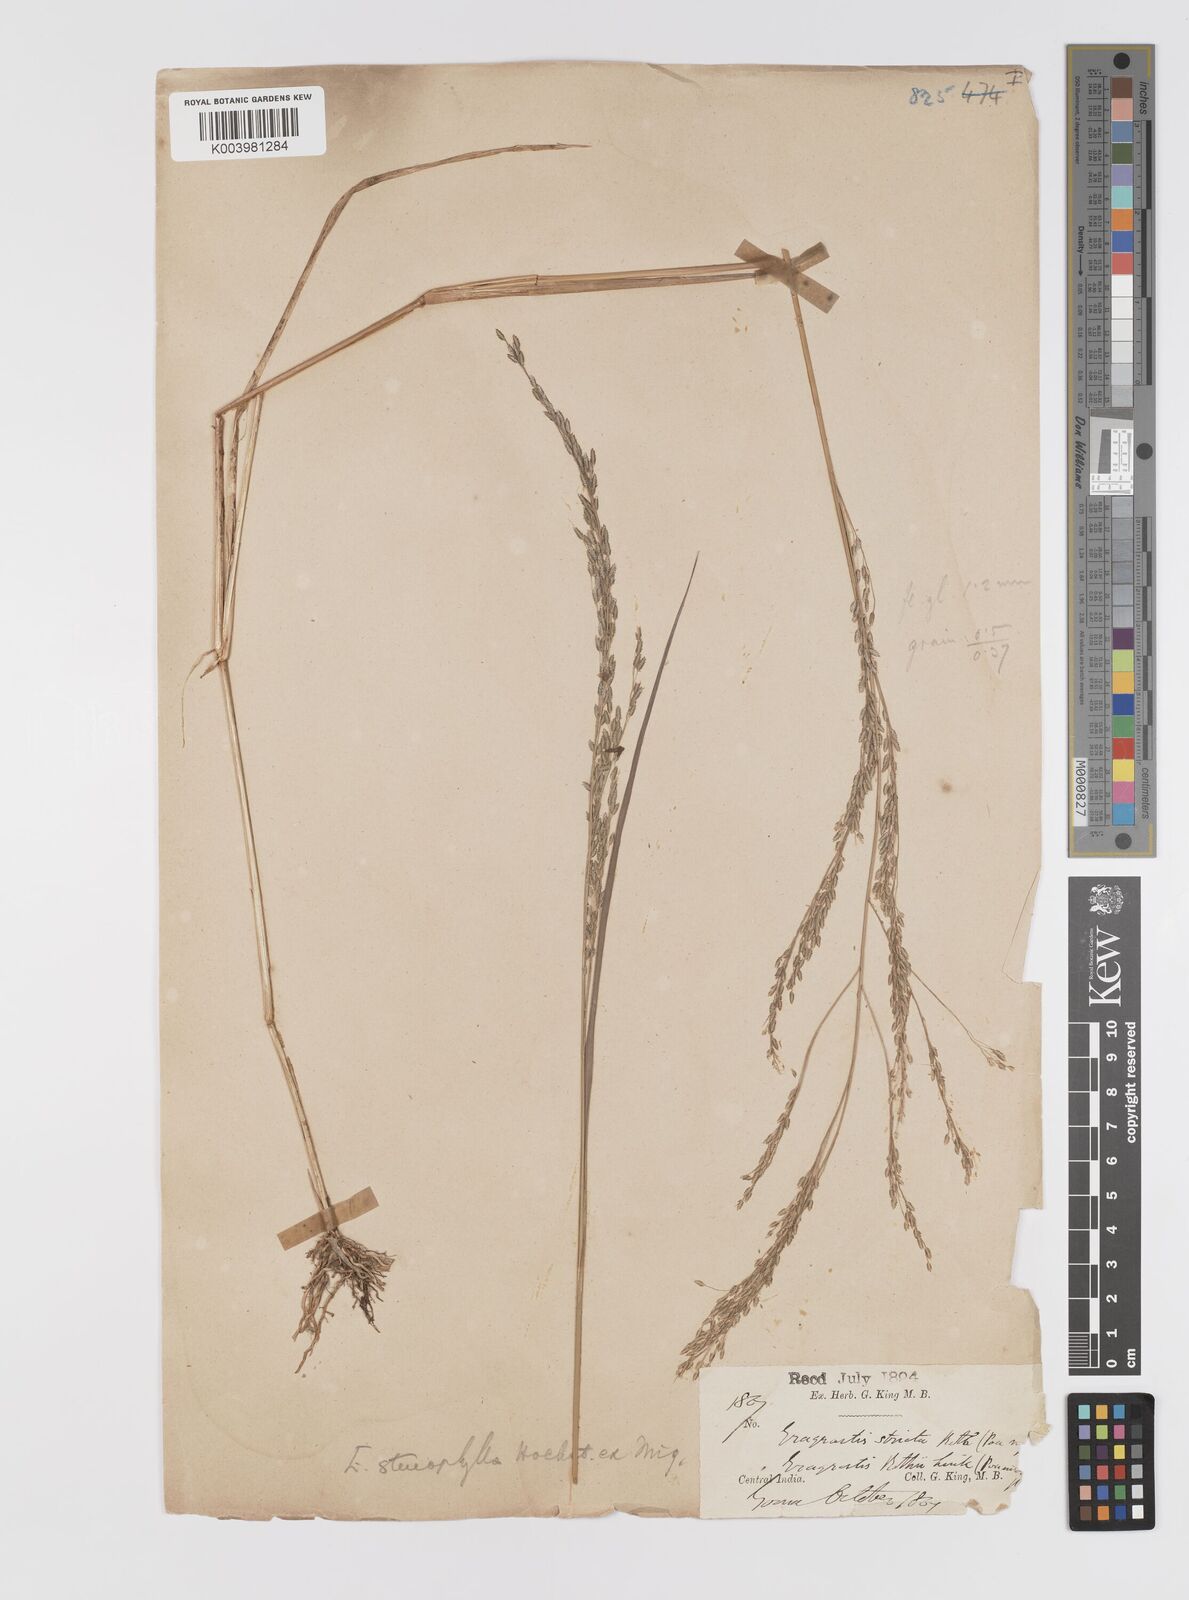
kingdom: Plantae
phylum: Tracheophyta
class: Liliopsida
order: Poales
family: Poaceae
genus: Eragrostis
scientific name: Eragrostis gangetica
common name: Slimflower lovegrass
